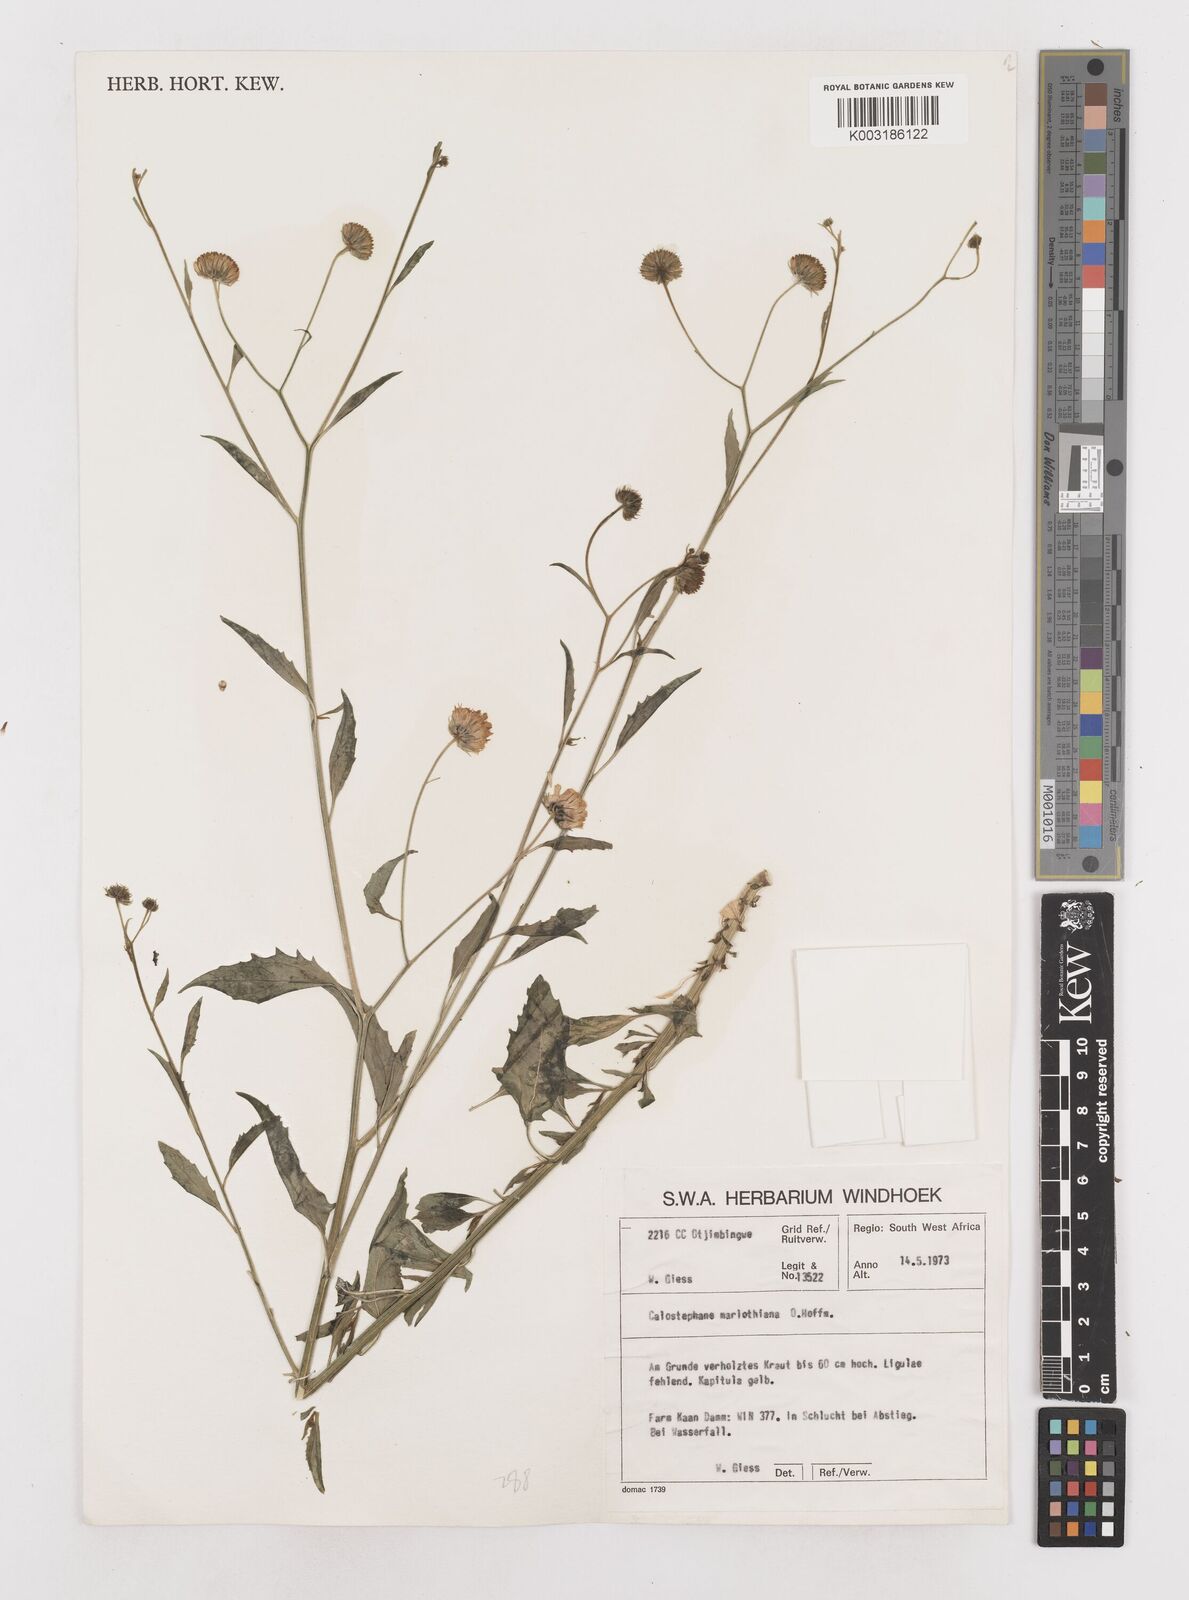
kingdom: Plantae
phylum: Tracheophyta
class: Magnoliopsida
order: Asterales
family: Asteraceae
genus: Calostephane
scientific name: Calostephane marlothiana
